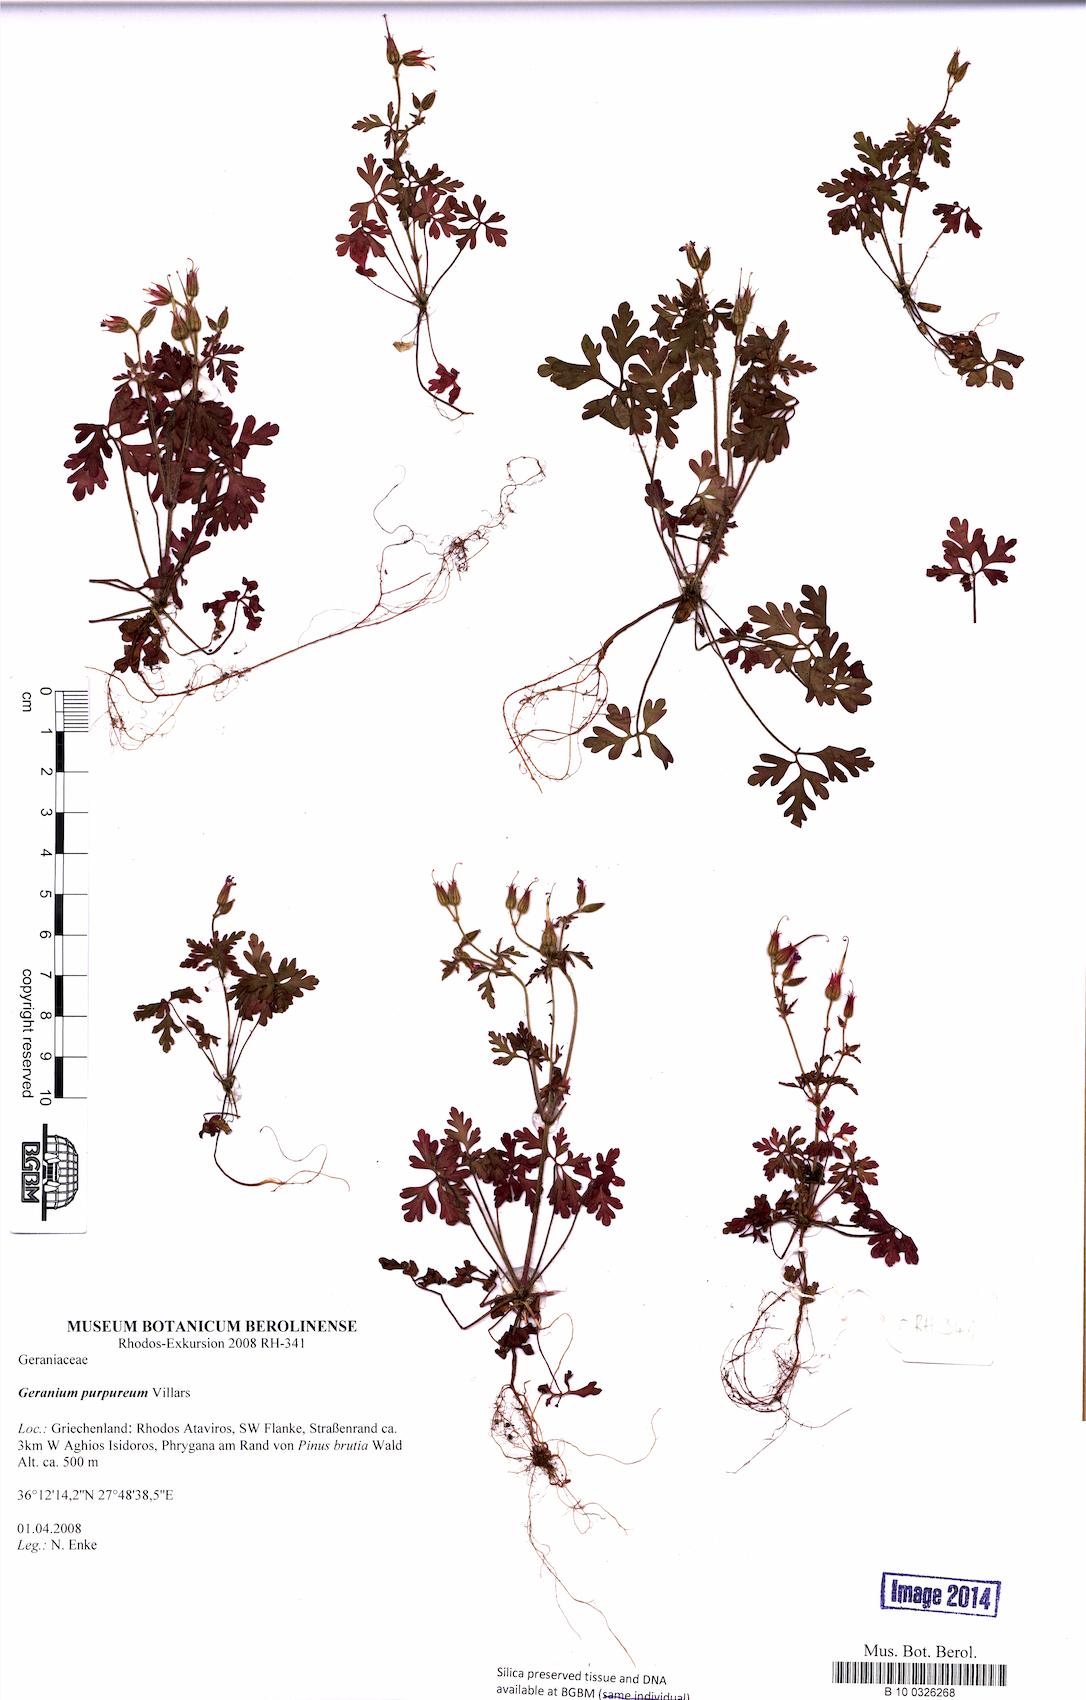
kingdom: Plantae
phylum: Tracheophyta
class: Magnoliopsida
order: Geraniales
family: Geraniaceae
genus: Geranium
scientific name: Geranium purpureum
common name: Little-robin
